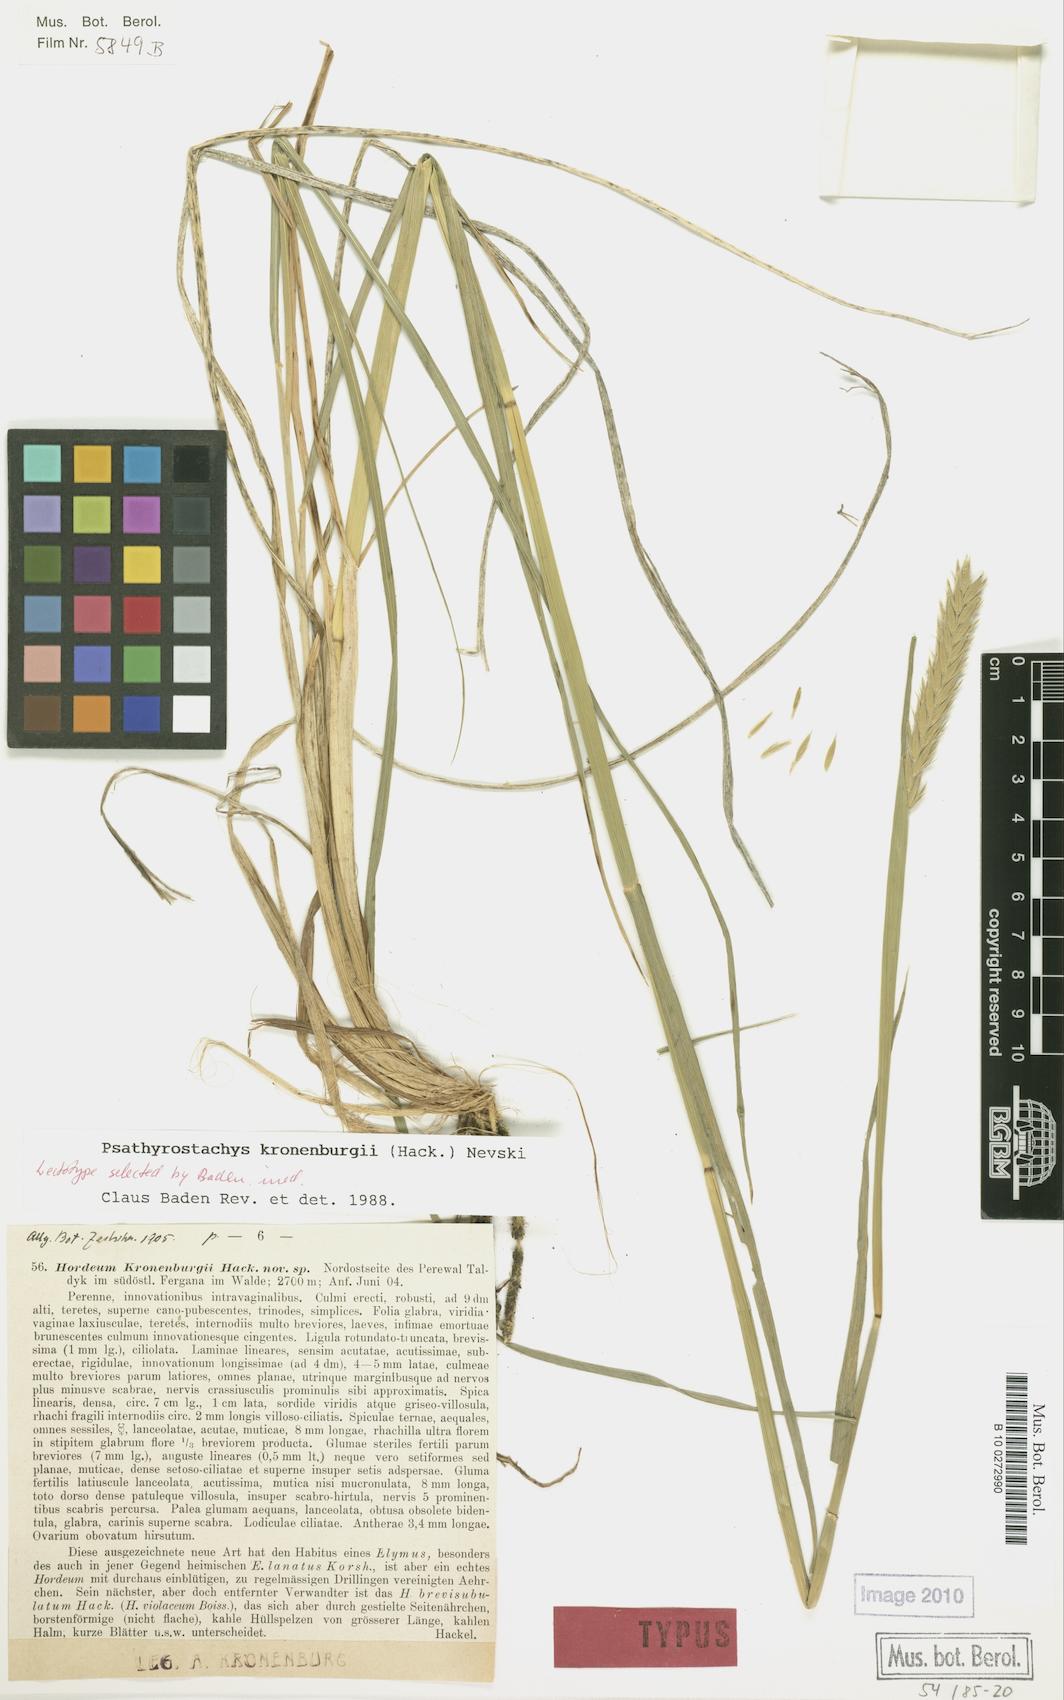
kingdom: Plantae
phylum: Tracheophyta
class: Liliopsida
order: Poales
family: Poaceae
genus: Psathyrostachys
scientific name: Psathyrostachys kronenburgii
